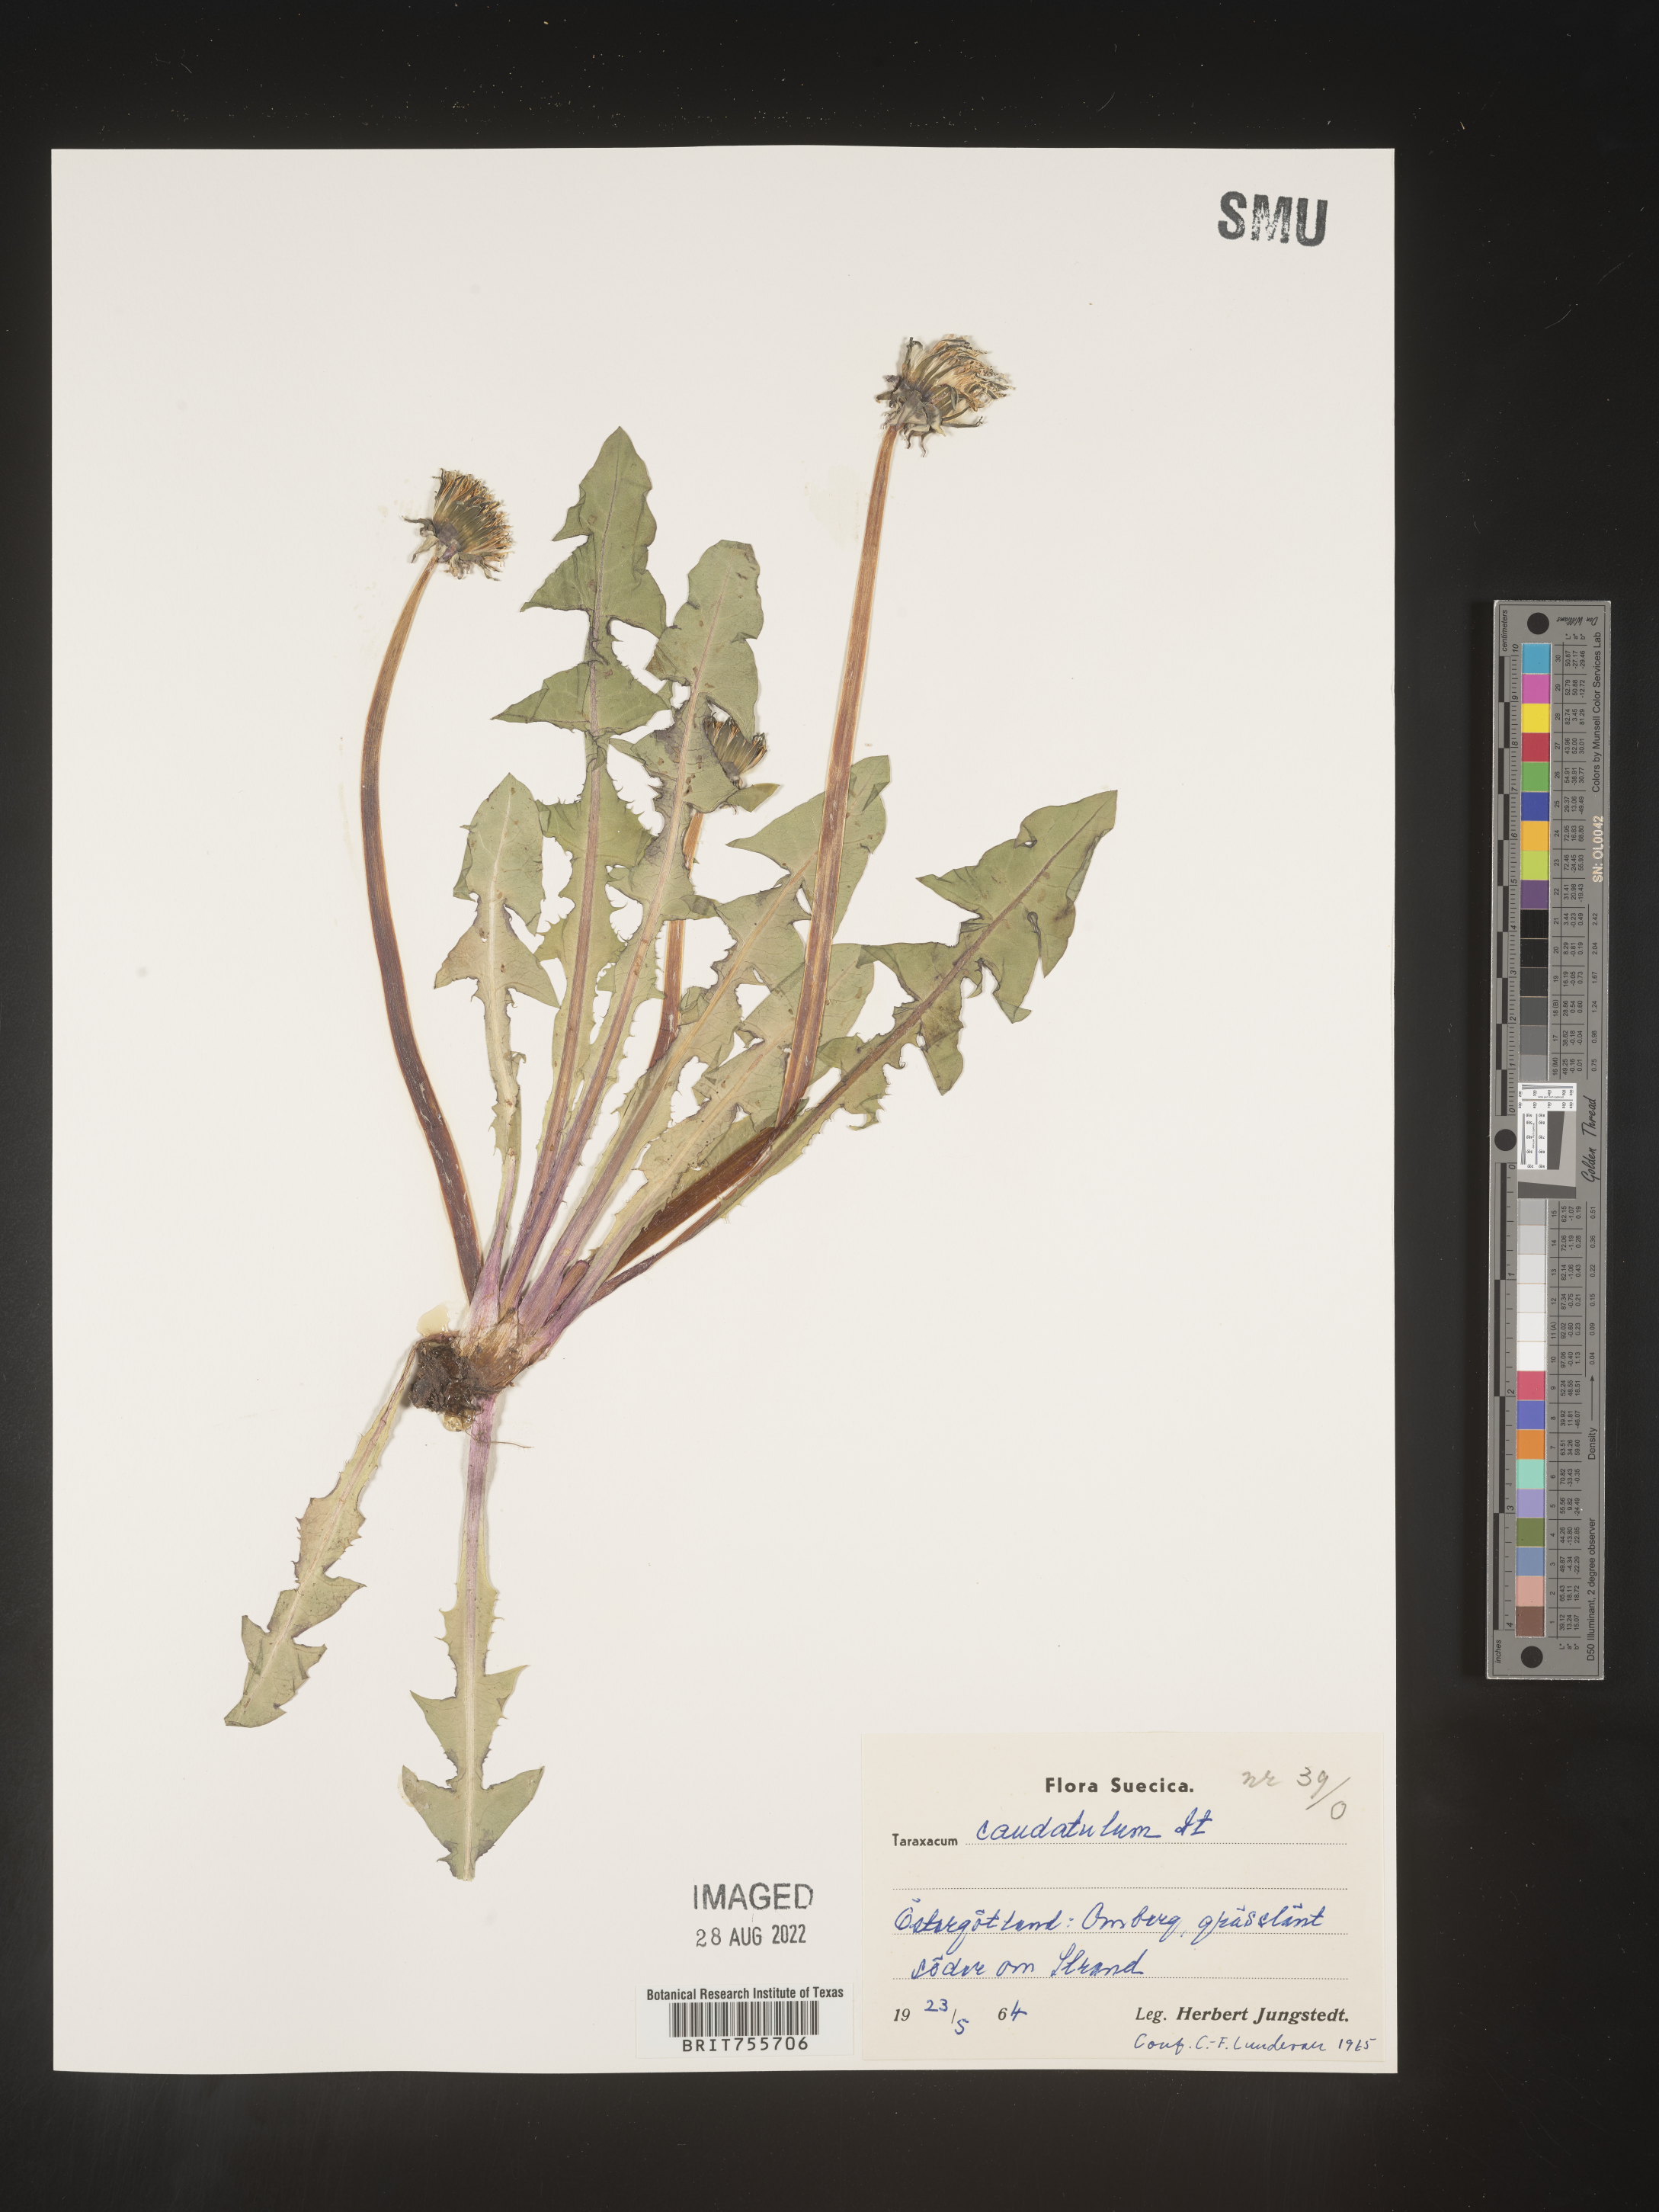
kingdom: Plantae
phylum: Tracheophyta
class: Magnoliopsida
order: Asterales
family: Asteraceae
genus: Taraxacum
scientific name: Taraxacum
